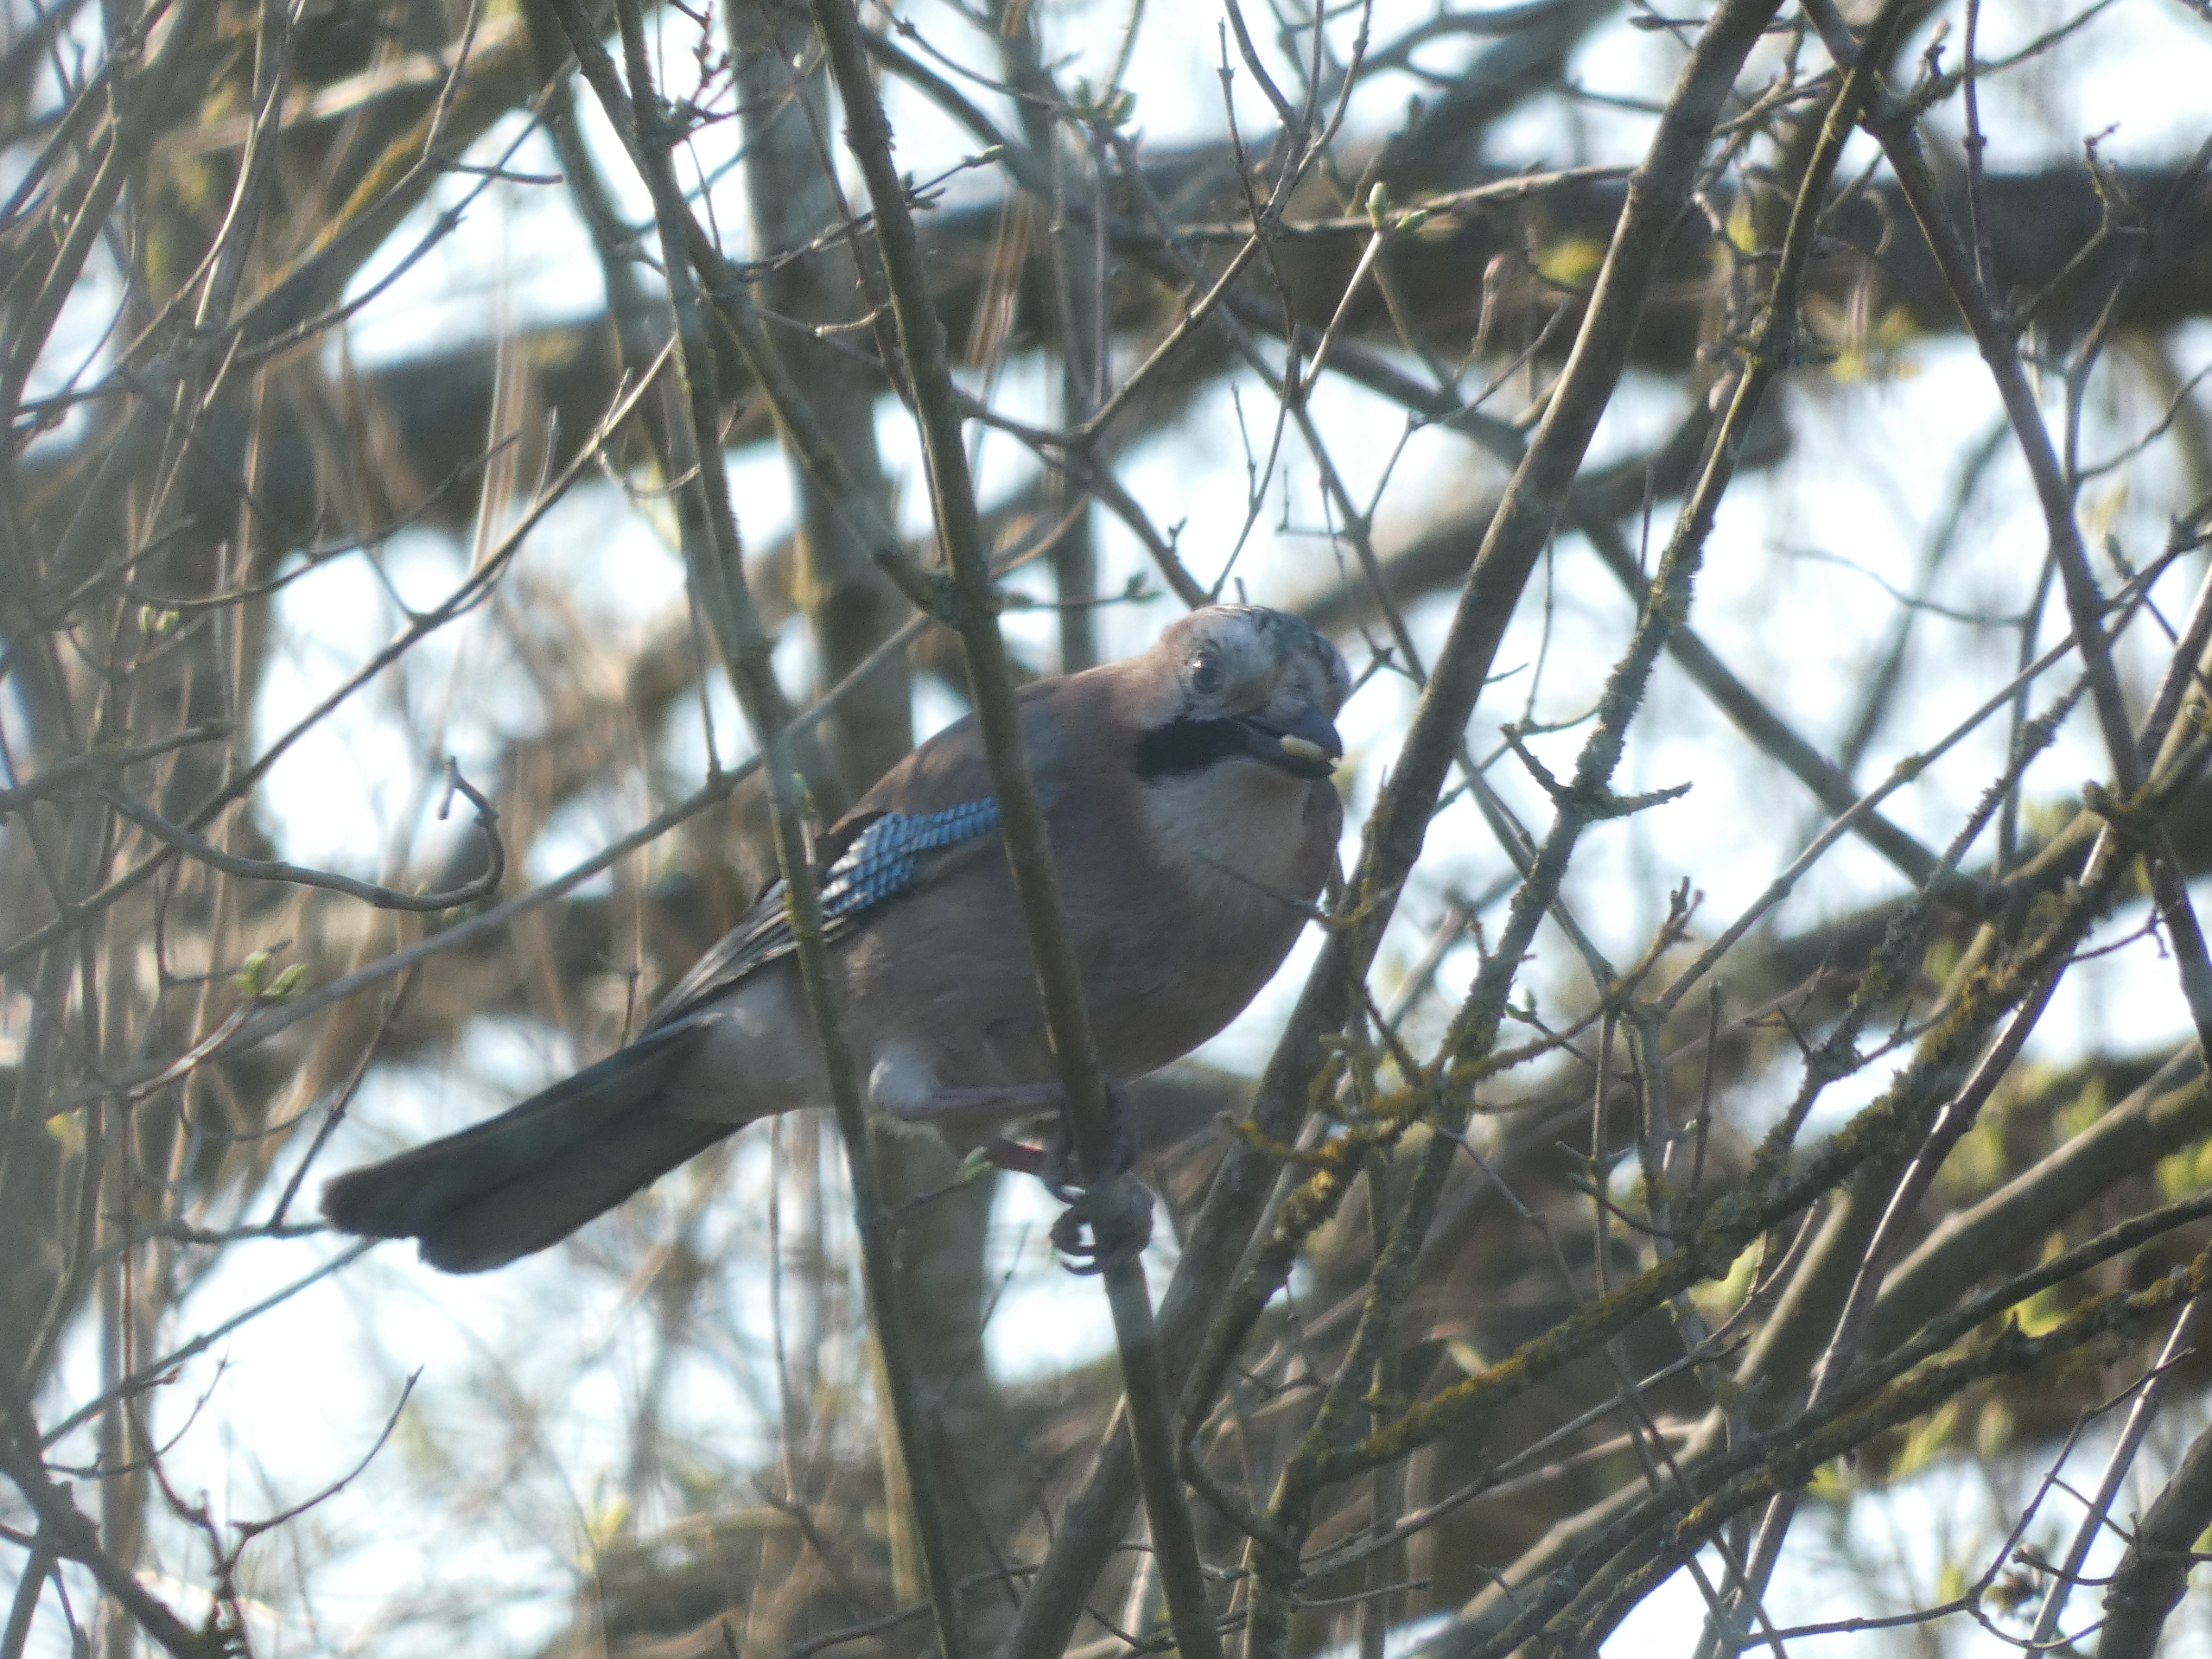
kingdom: Animalia
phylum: Chordata
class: Aves
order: Passeriformes
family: Corvidae
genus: Garrulus
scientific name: Garrulus glandarius
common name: Skovskade
